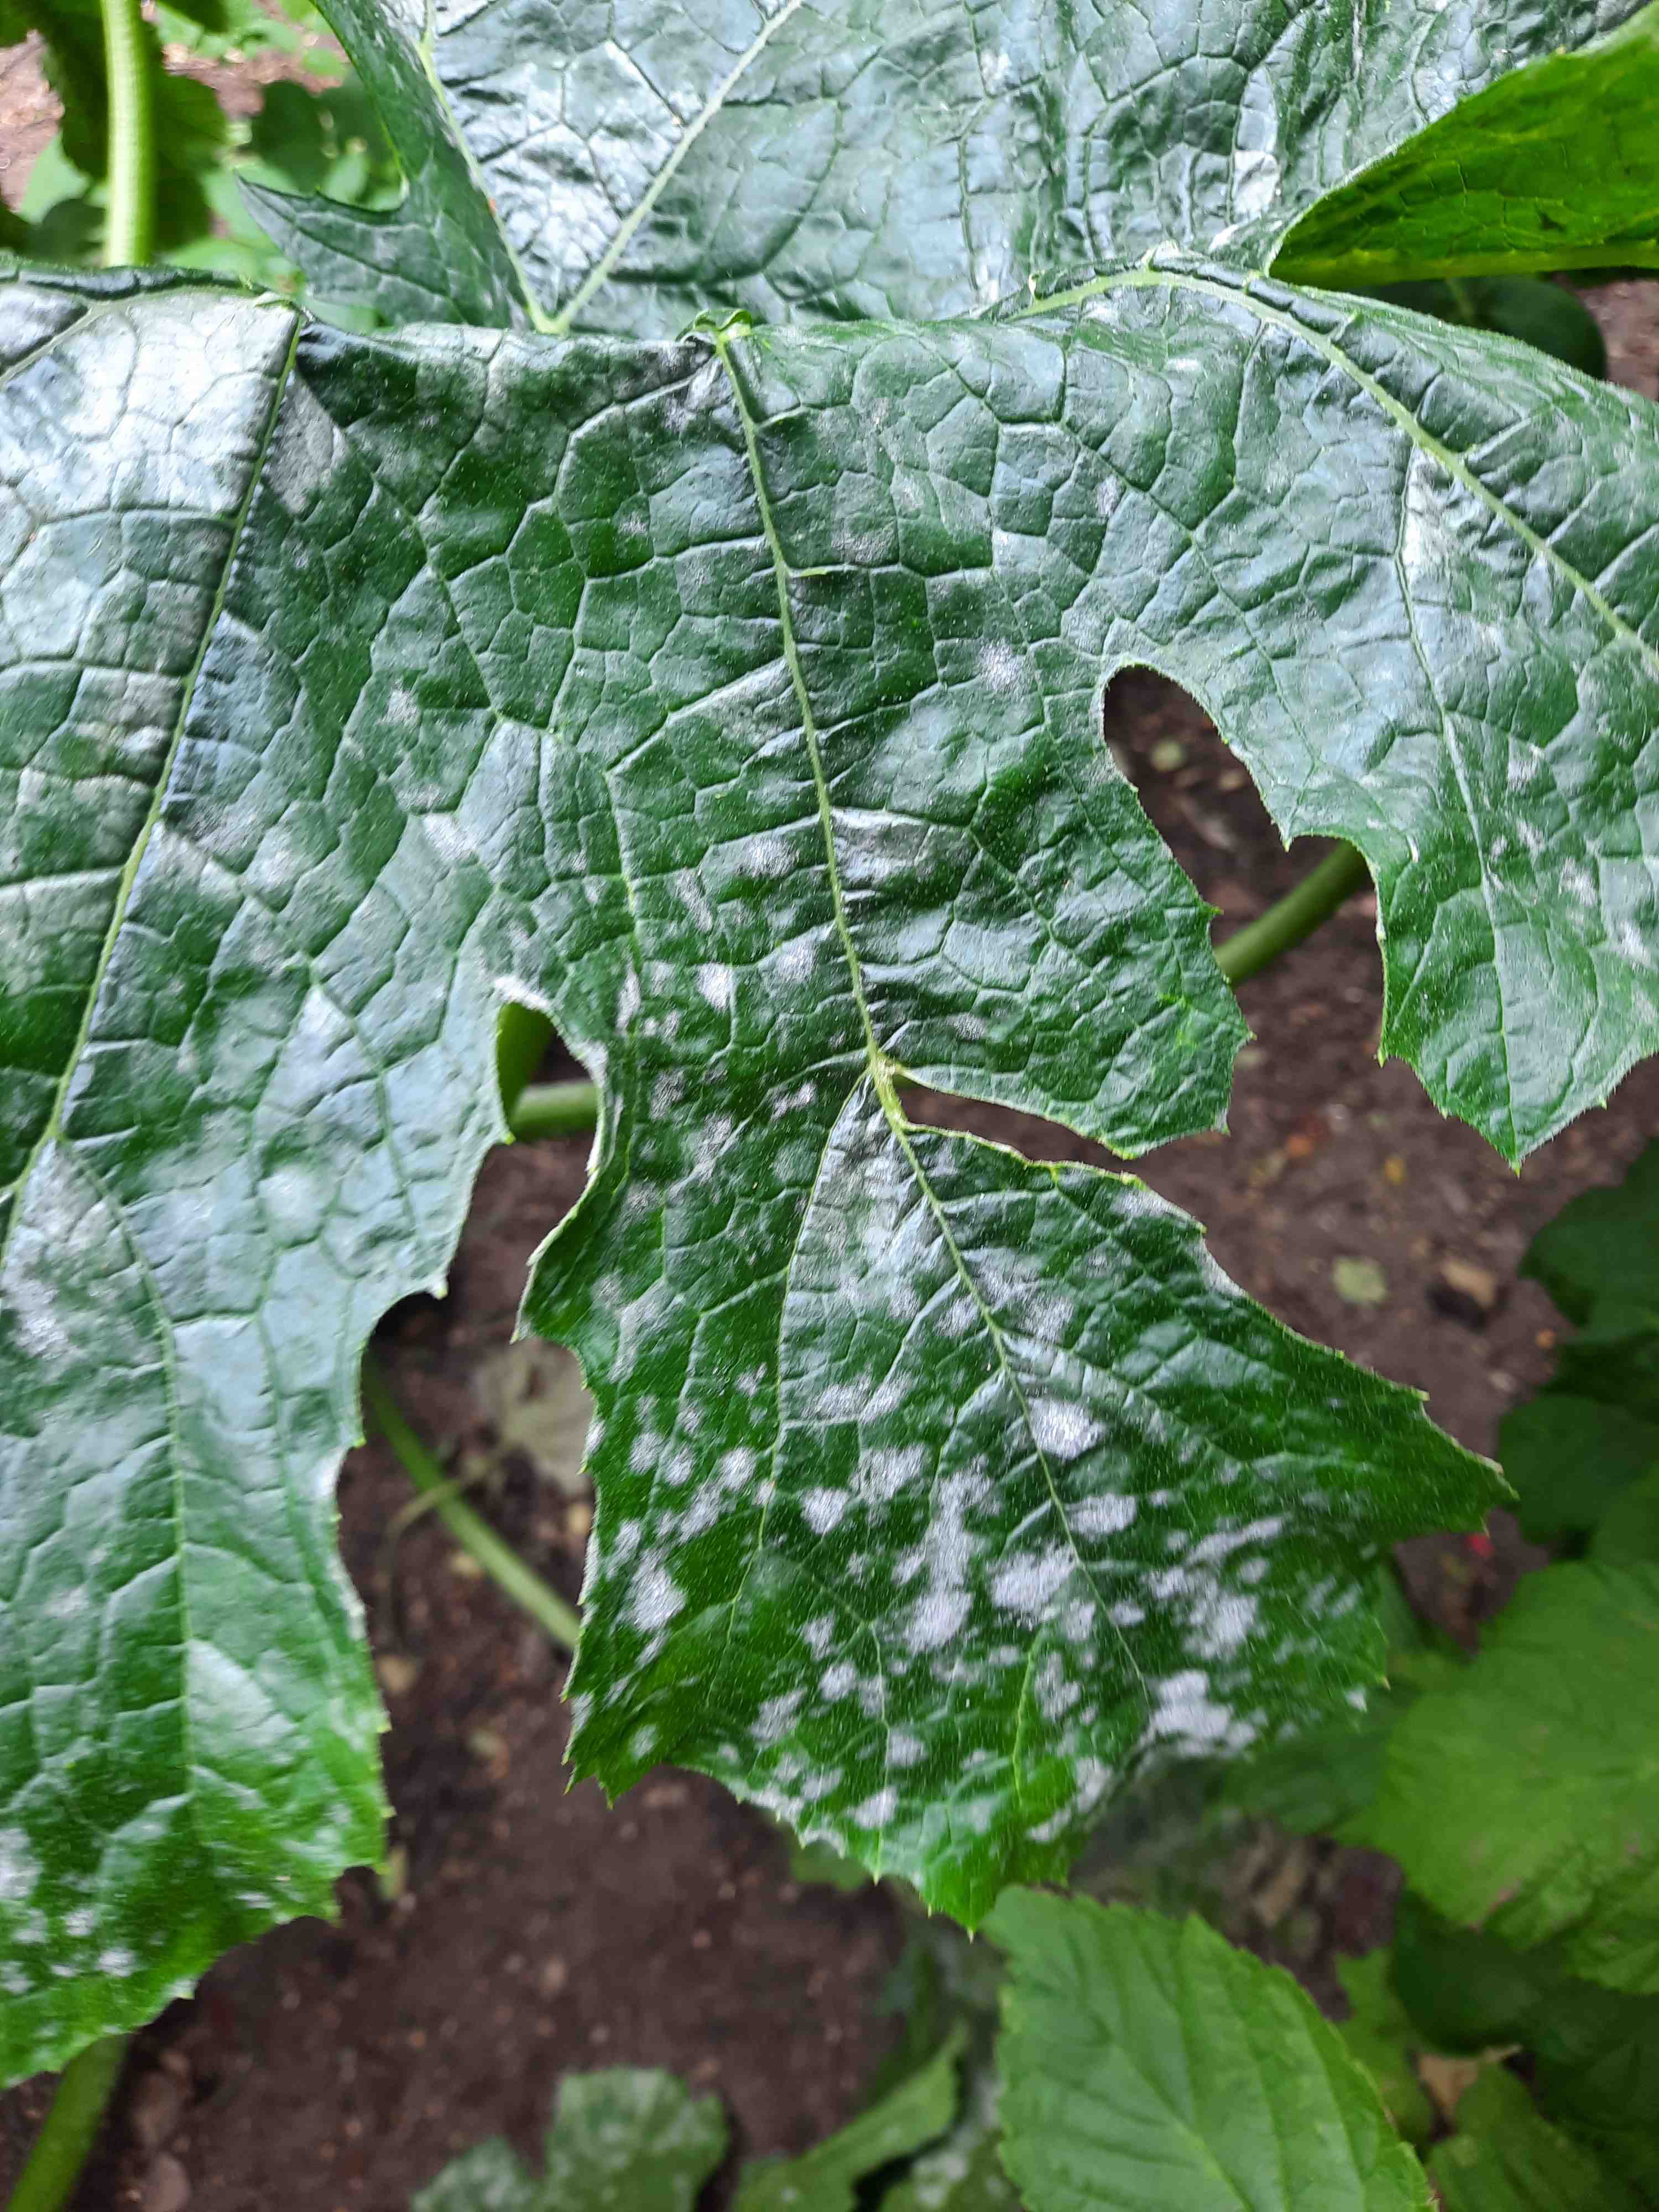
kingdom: Fungi
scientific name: Fungi
